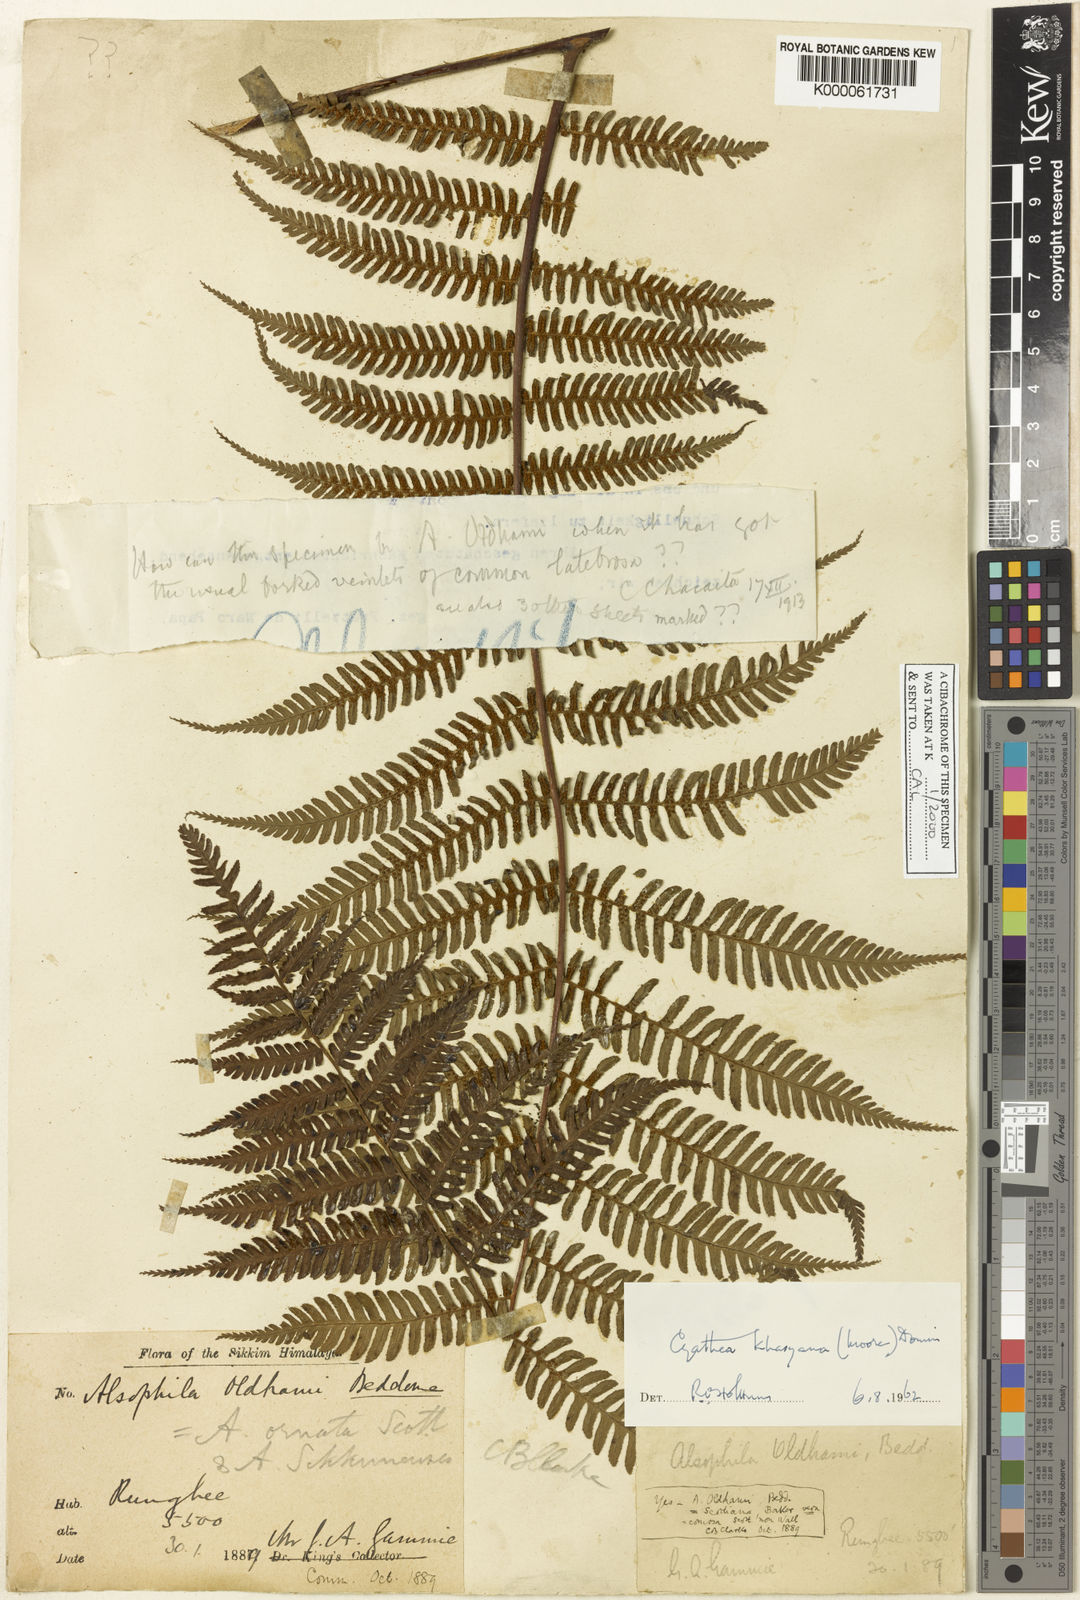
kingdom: Plantae
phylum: Tracheophyta
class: Polypodiopsida
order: Cyatheales
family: Cyatheaceae
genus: Gymnosphaera
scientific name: Gymnosphaera khasyana
